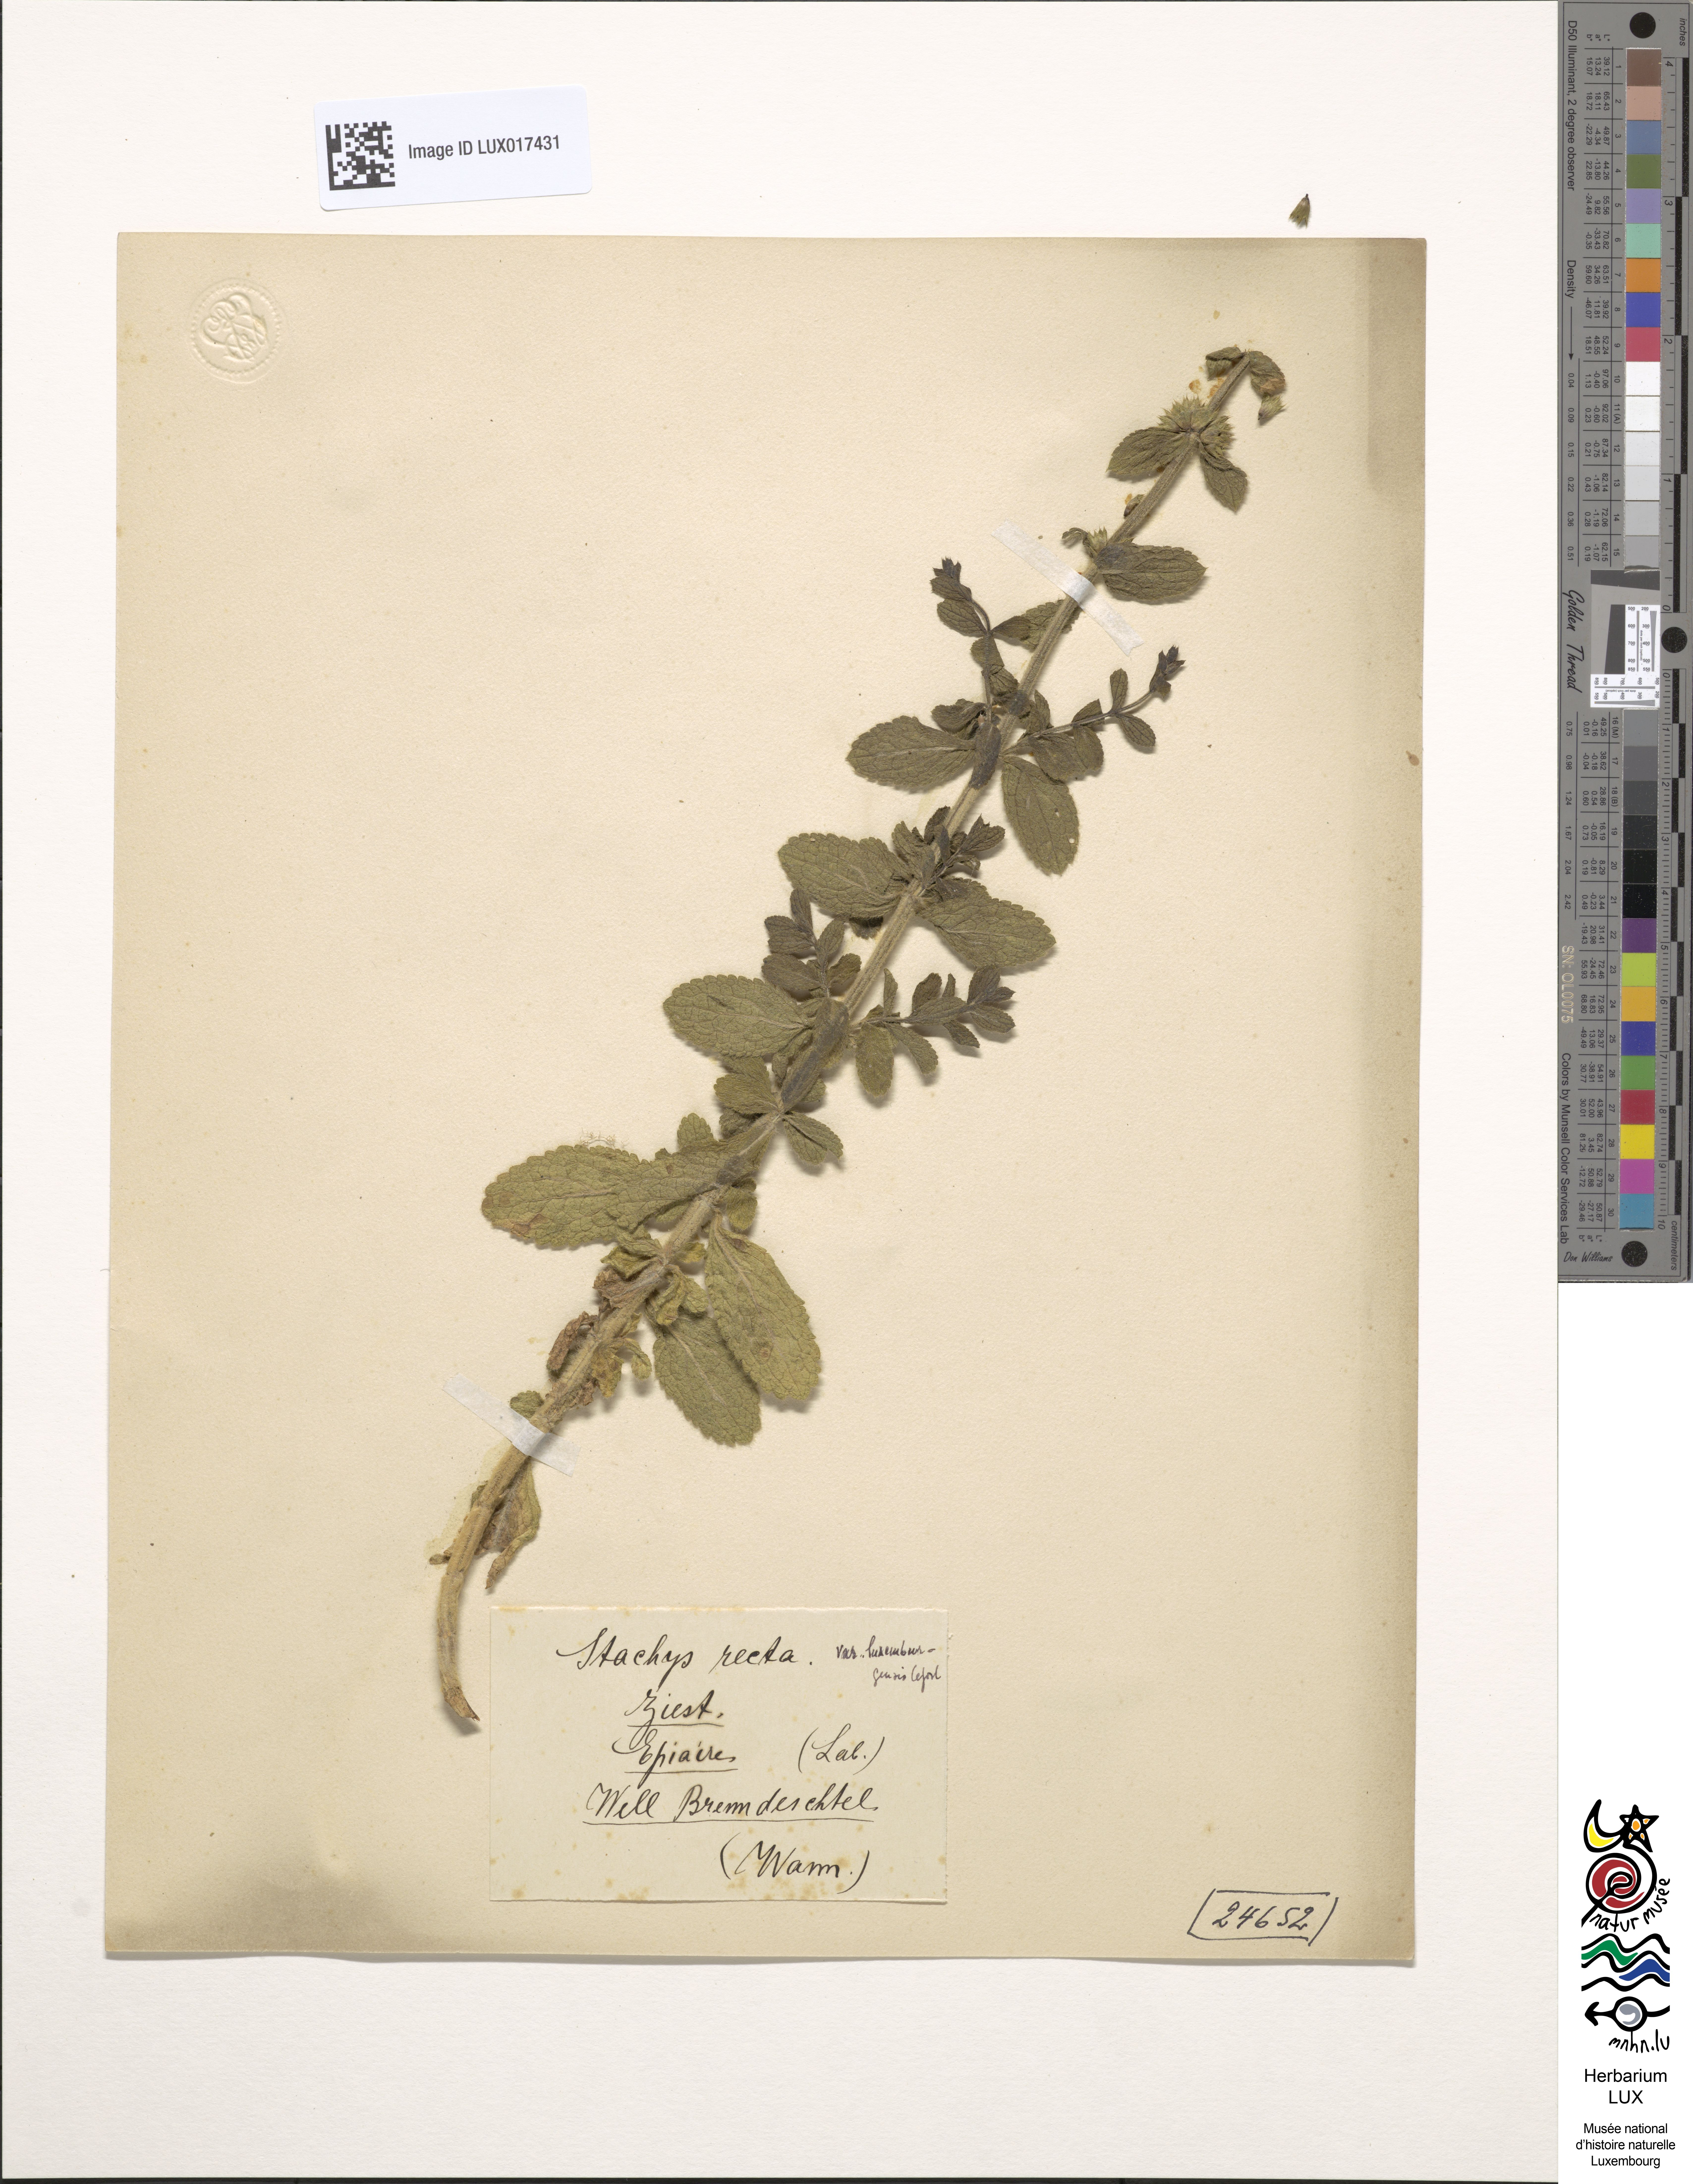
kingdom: Plantae
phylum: Tracheophyta
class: Magnoliopsida
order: Lamiales
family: Lamiaceae
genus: Stachys
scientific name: Stachys recta
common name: Perennial yellow-woundwort
